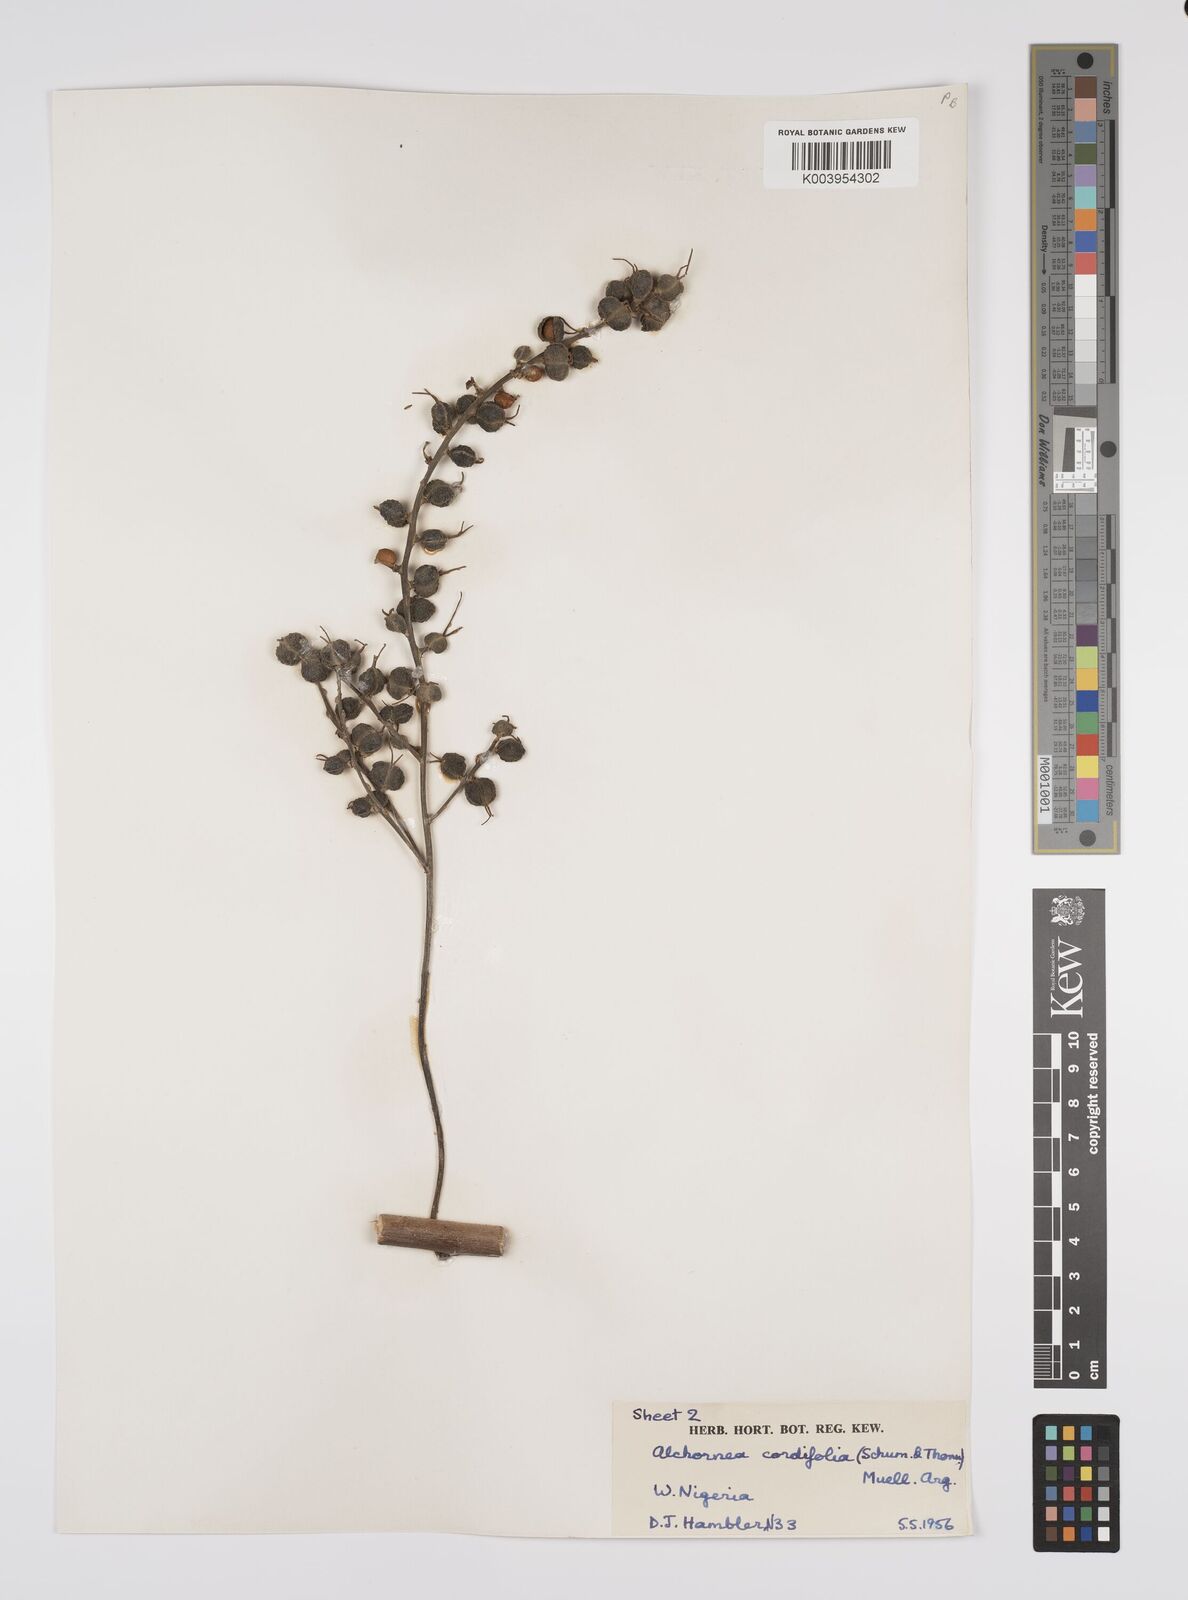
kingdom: Plantae
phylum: Tracheophyta
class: Magnoliopsida
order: Malpighiales
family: Euphorbiaceae
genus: Alchornea
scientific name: Alchornea cordifolia
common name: Christmasbush
